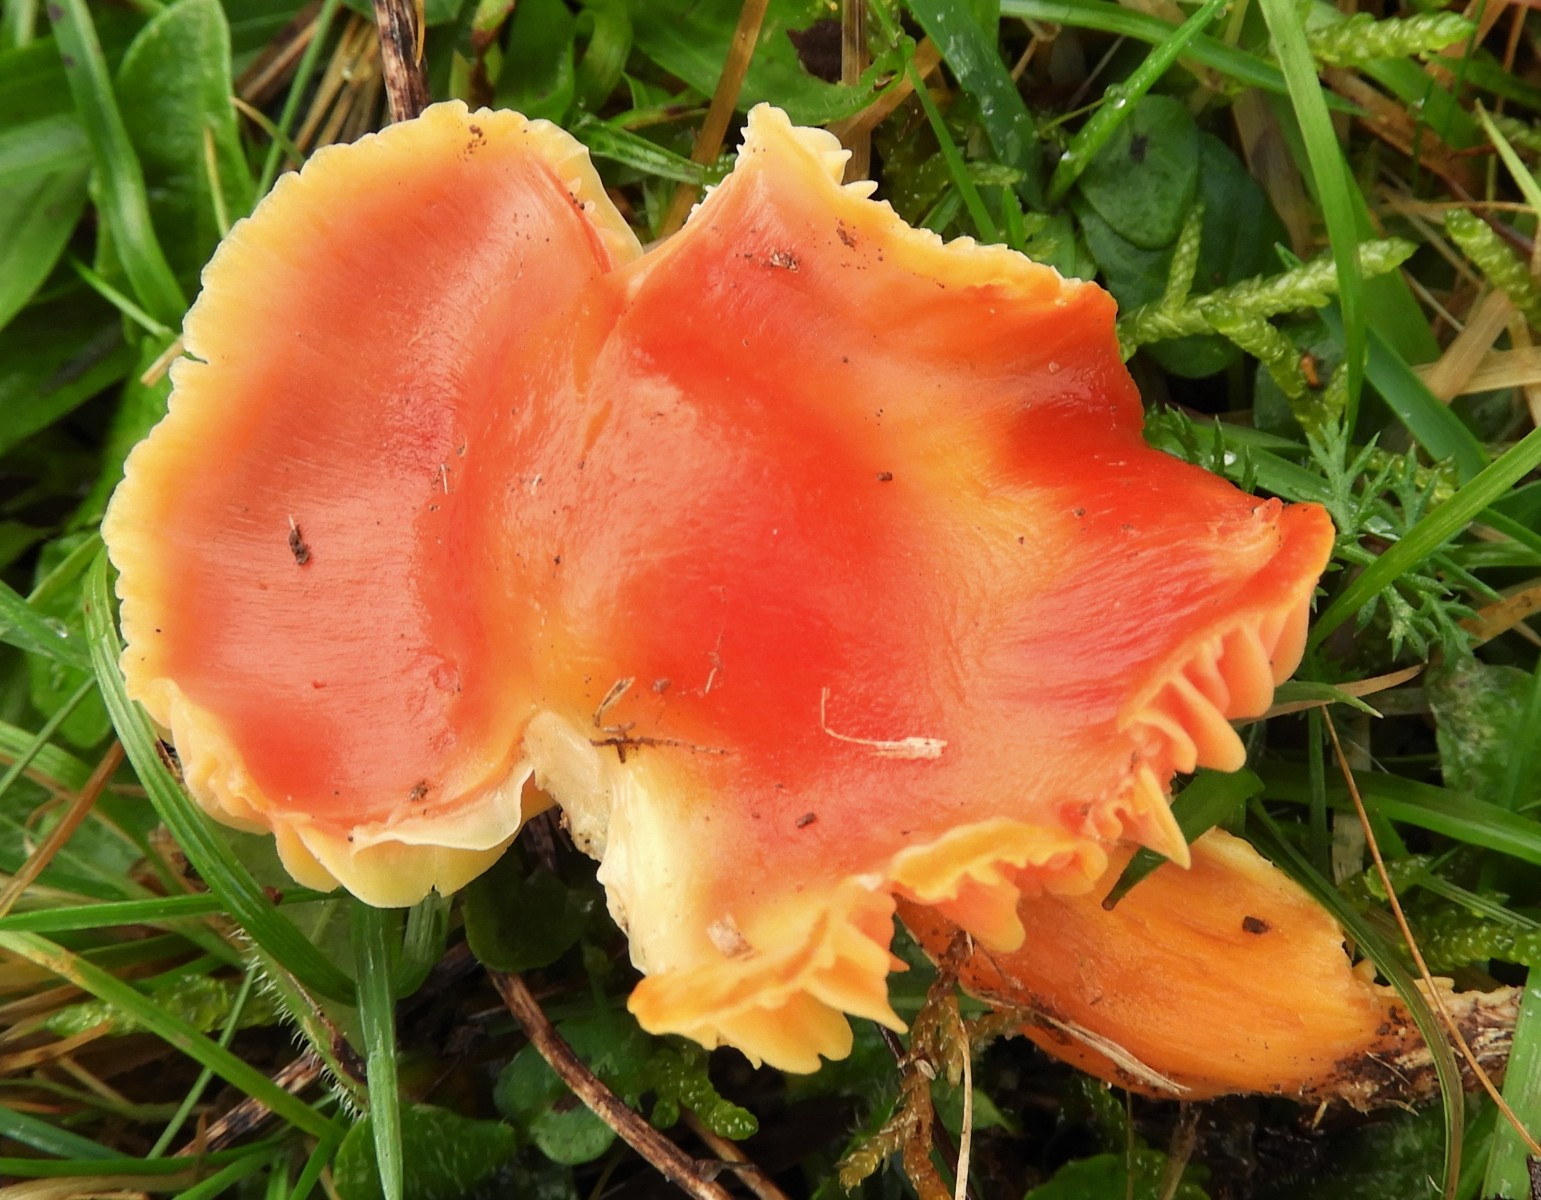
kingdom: Fungi
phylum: Basidiomycota
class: Agaricomycetes
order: Agaricales
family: Hygrophoraceae
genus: Hygrocybe
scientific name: Hygrocybe splendidissima
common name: knaldrød vokshat
